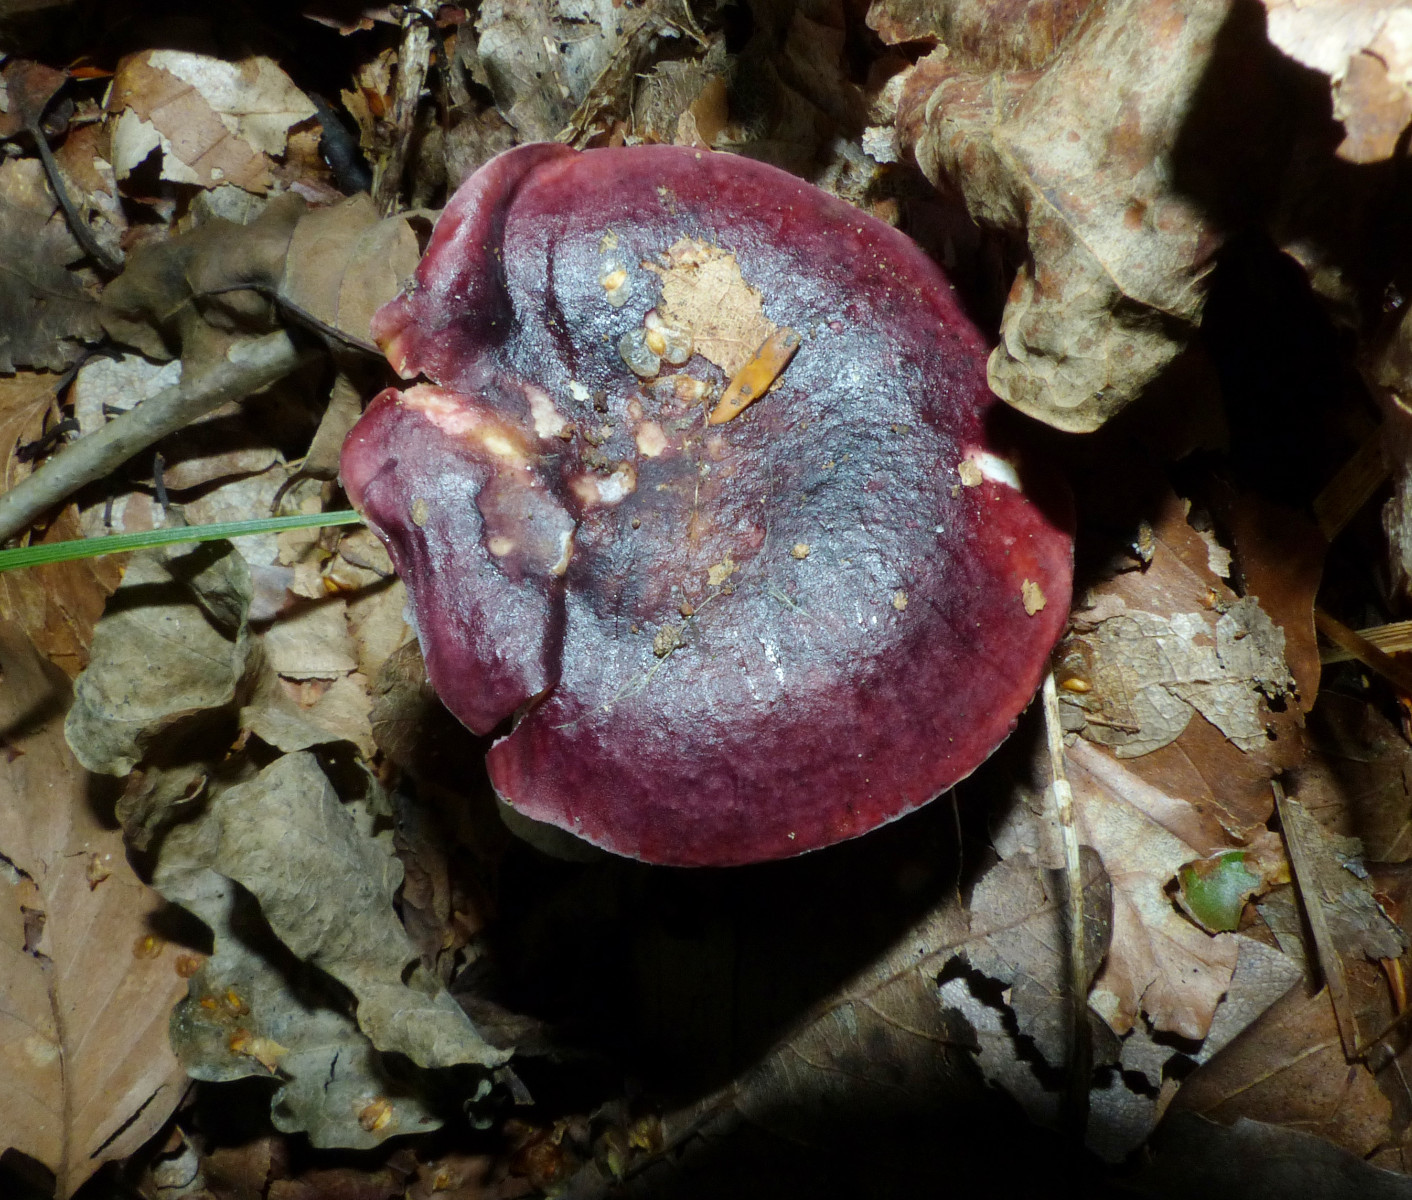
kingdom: Fungi
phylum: Basidiomycota
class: Agaricomycetes
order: Russulales
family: Russulaceae
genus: Russula
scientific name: Russula atropurpurea
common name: purpurbroget skørhat
